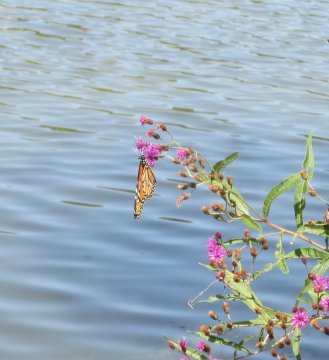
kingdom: Animalia
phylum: Arthropoda
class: Insecta
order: Lepidoptera
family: Nymphalidae
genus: Danaus
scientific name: Danaus plexippus
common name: Monarch
